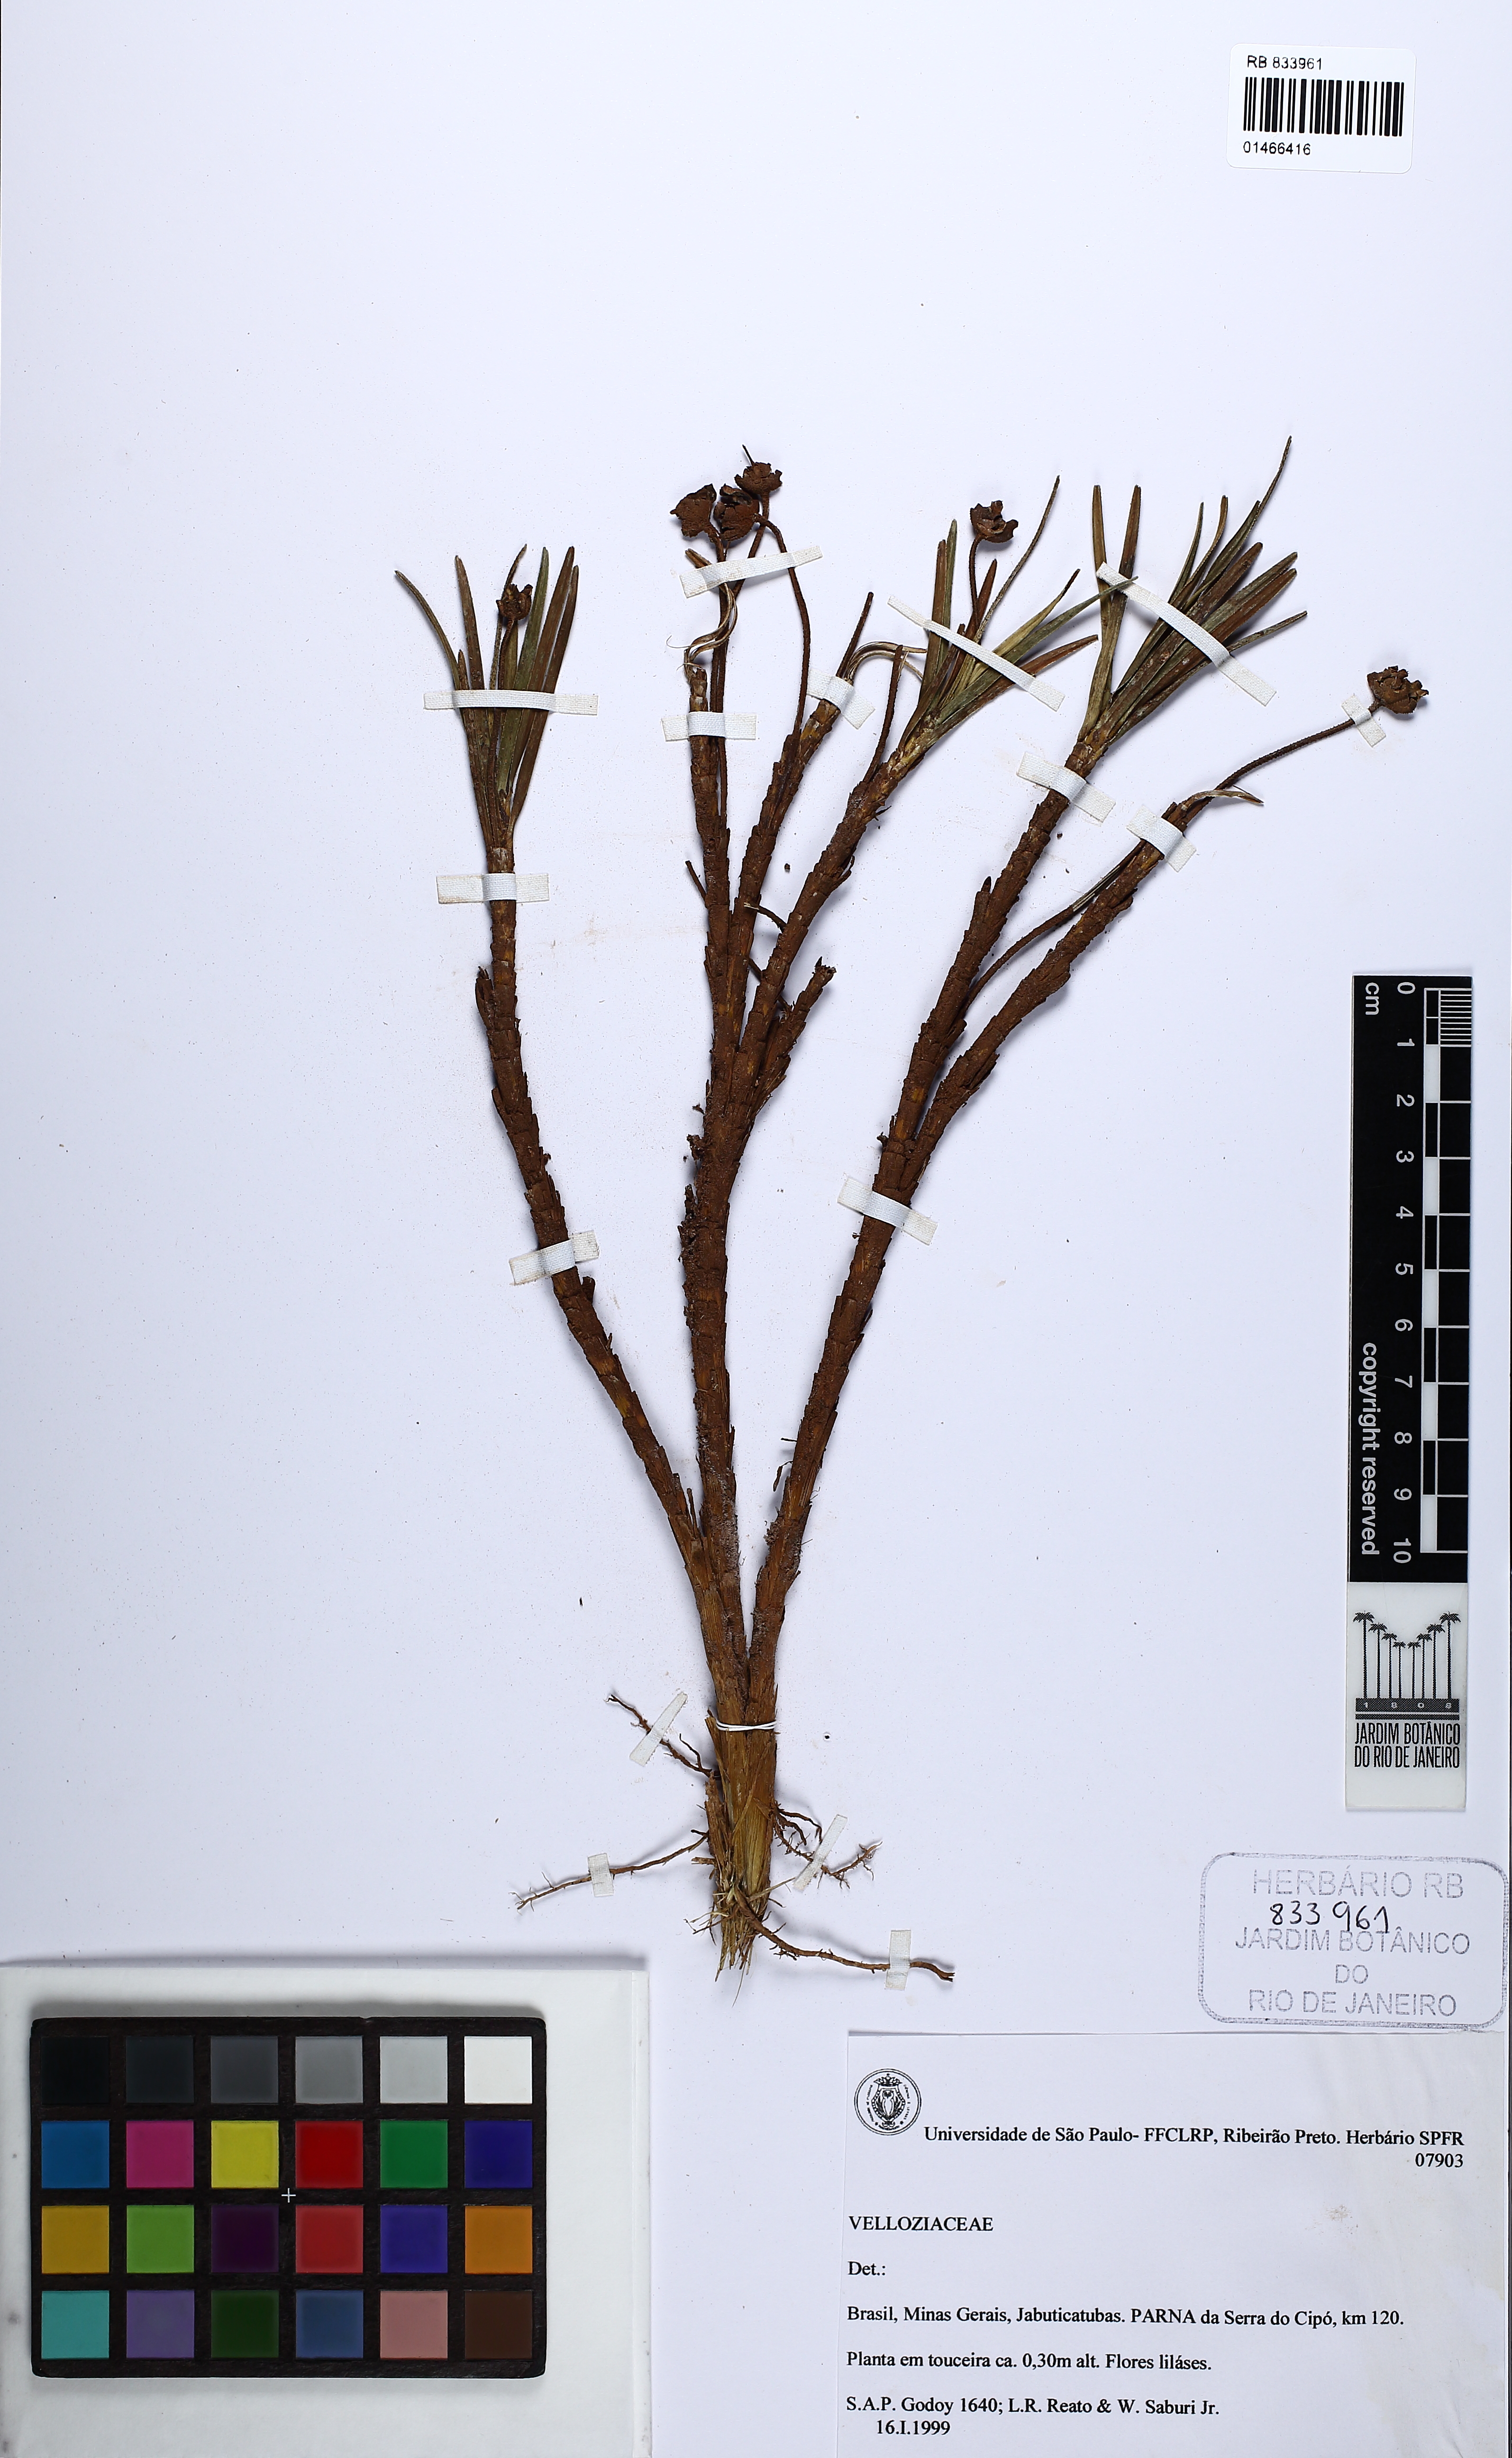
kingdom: Plantae
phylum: Tracheophyta
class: Liliopsida
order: Pandanales
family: Velloziaceae
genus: Vellozia
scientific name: Vellozia epidendroides
